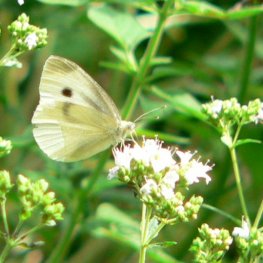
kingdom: Animalia
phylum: Arthropoda
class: Insecta
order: Lepidoptera
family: Pieridae
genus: Pieris
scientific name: Pieris rapae
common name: Cabbage White
